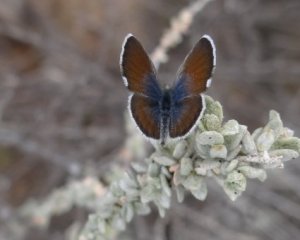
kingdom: Animalia
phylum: Arthropoda
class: Insecta
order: Lepidoptera
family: Lycaenidae
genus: Brephidium
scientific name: Brephidium exilis
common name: Western Pygmy-Blue
